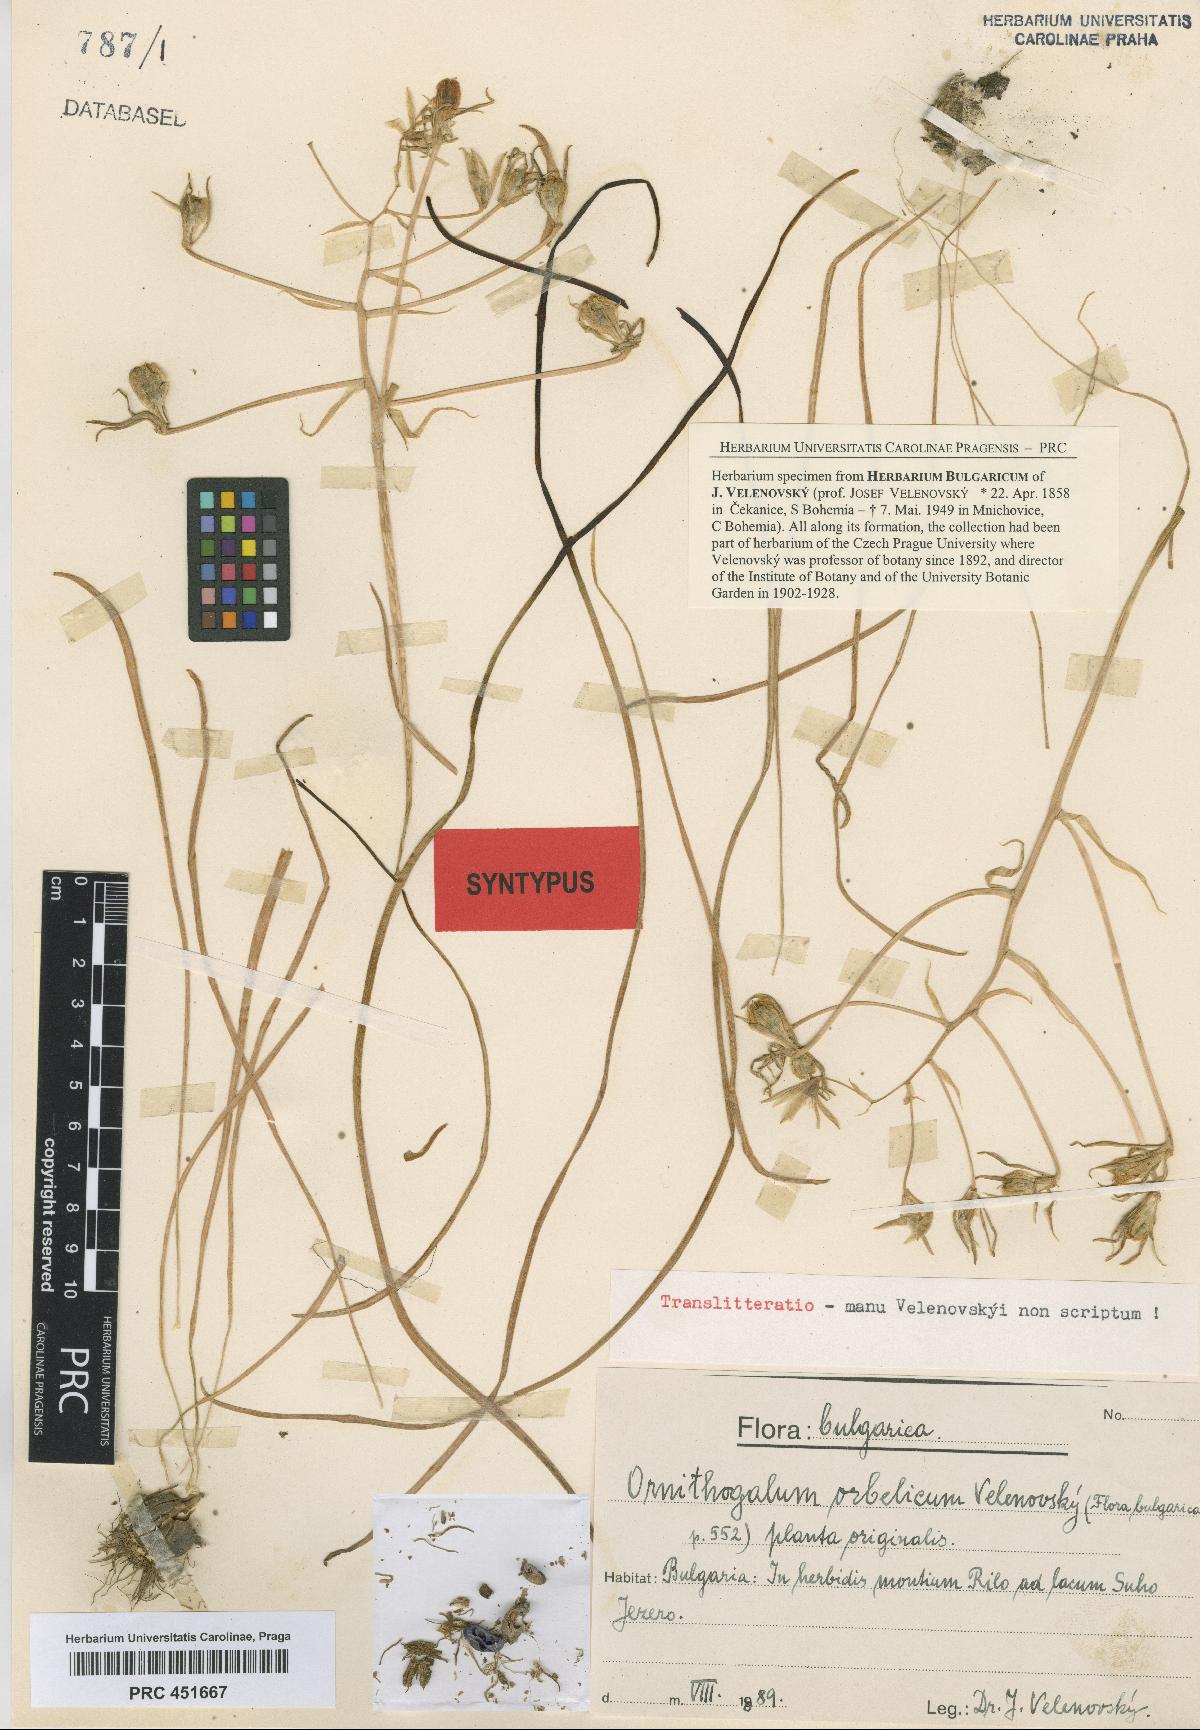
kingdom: Plantae
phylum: Tracheophyta
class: Liliopsida
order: Asparagales
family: Asparagaceae
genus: Ornithogalum
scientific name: Ornithogalum orthophyllum
